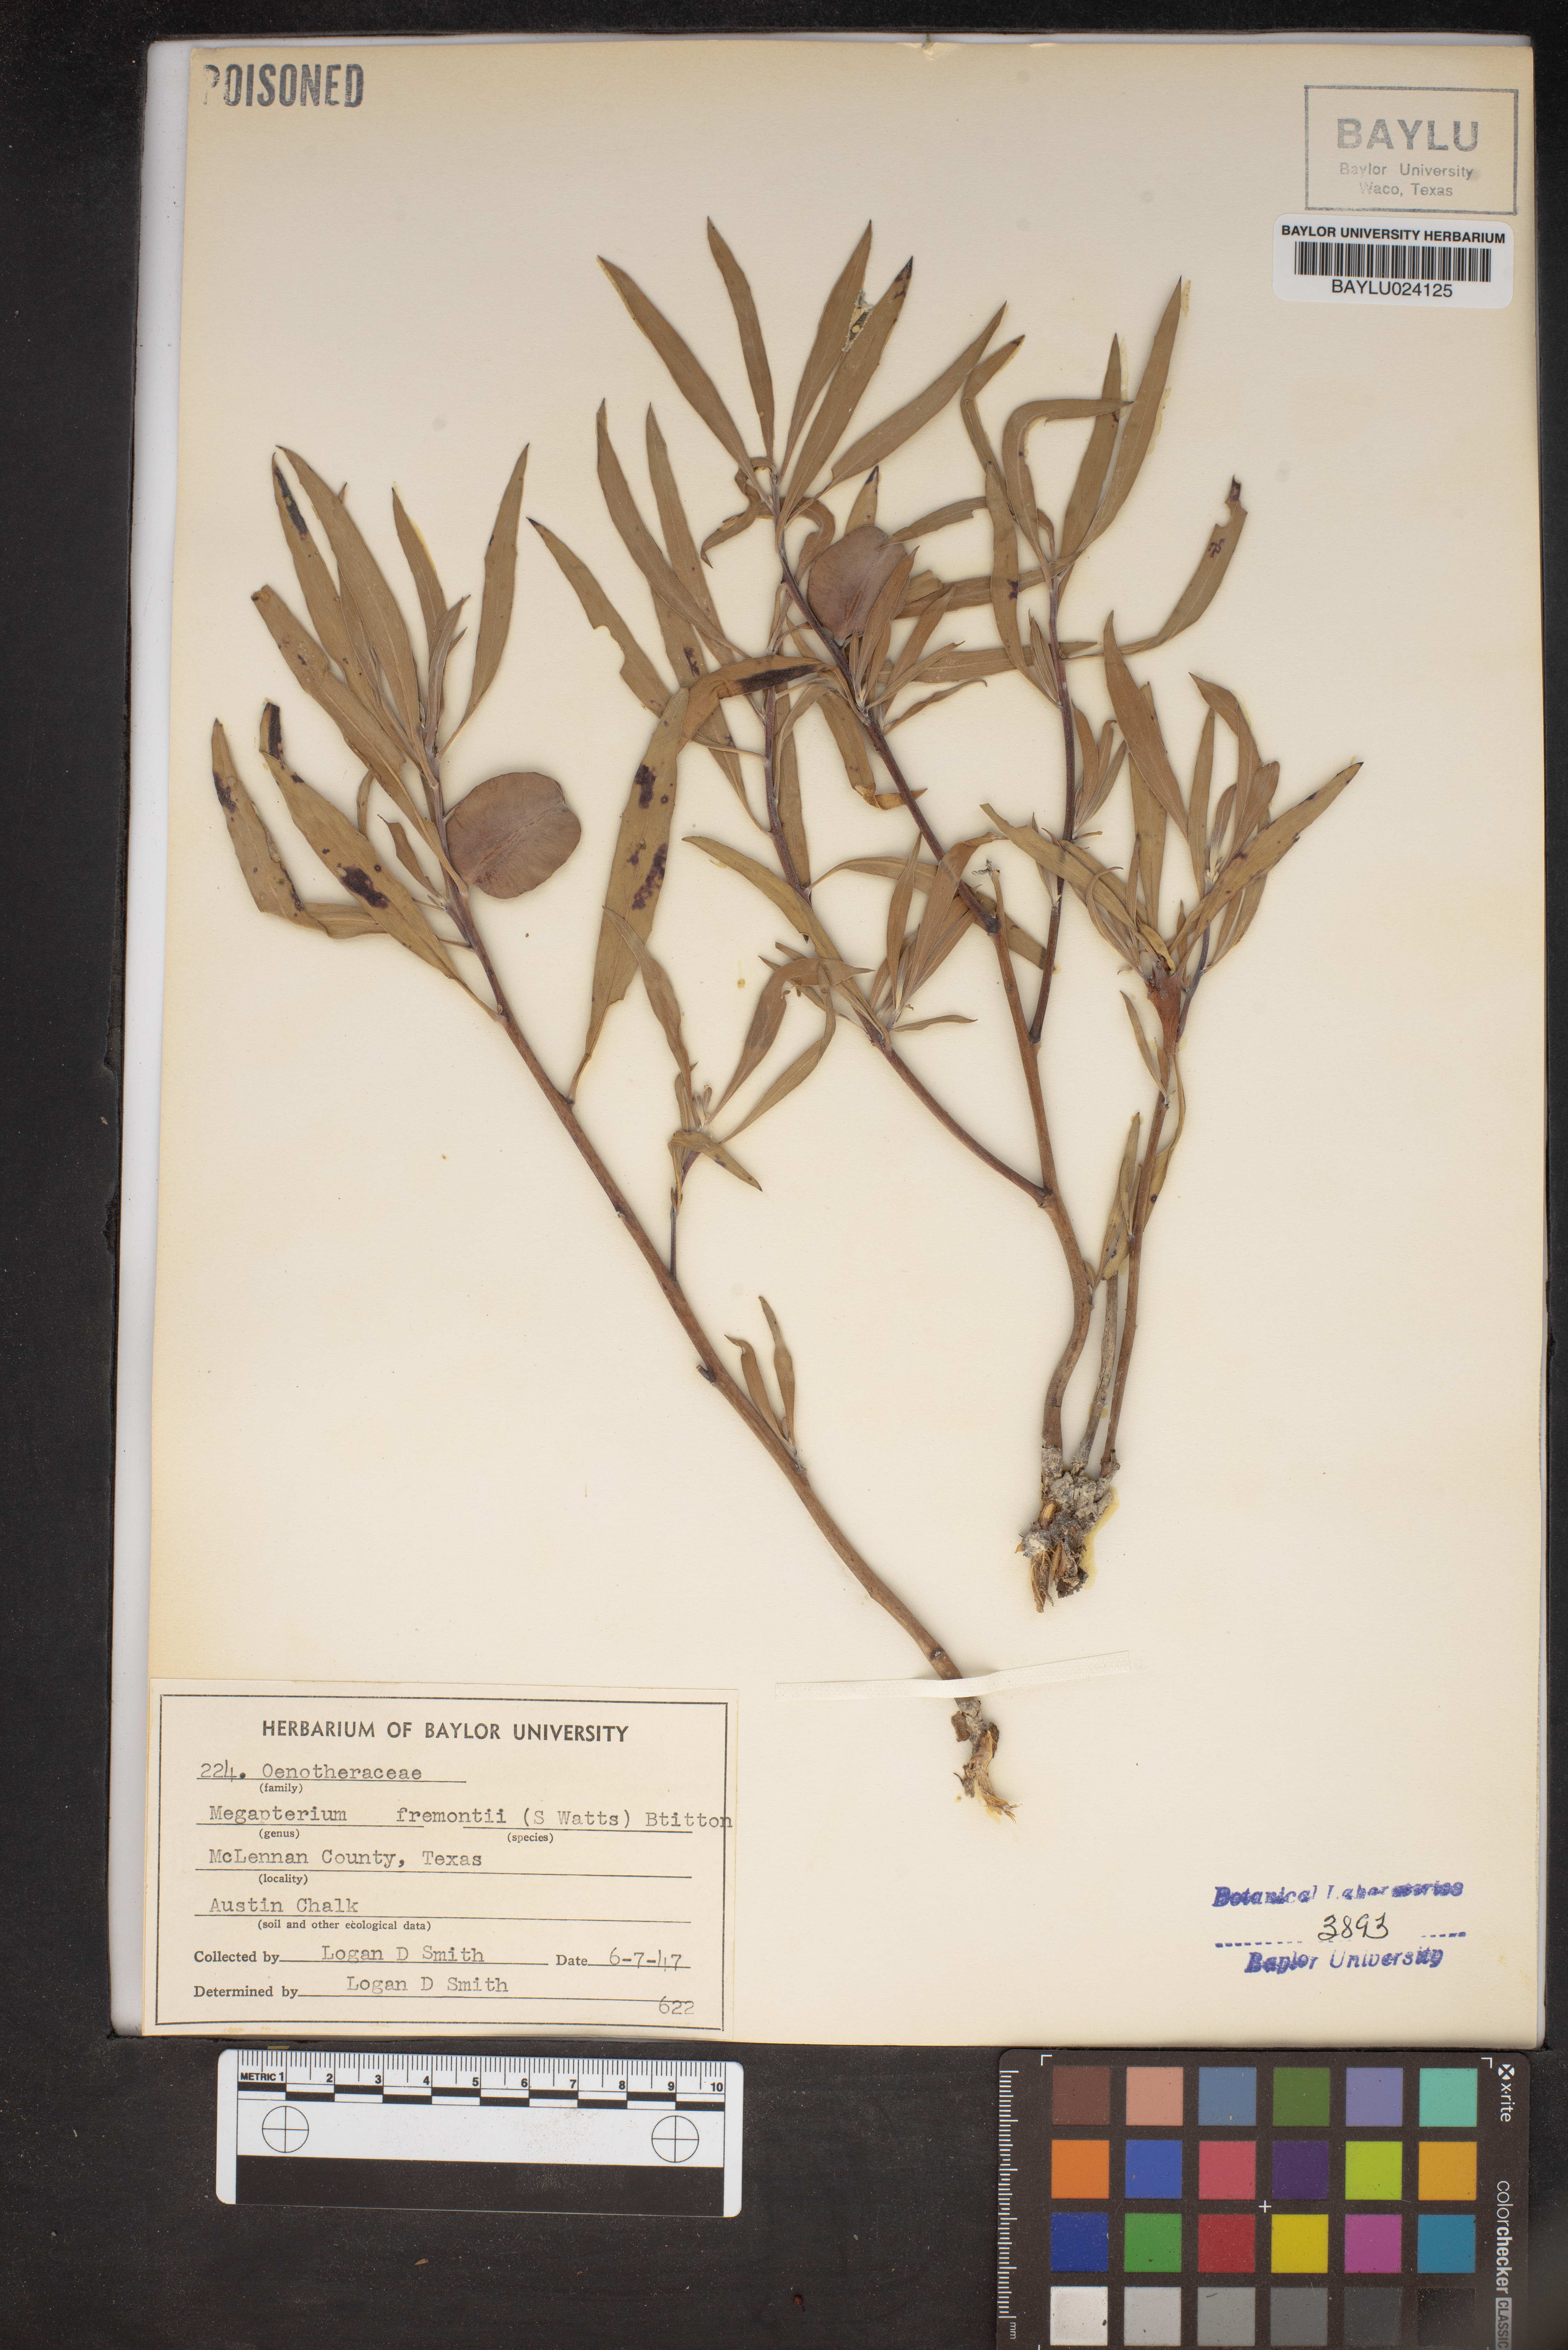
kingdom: Plantae
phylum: Tracheophyta
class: Magnoliopsida
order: Myrtales
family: Onagraceae
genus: Oenothera
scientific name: Oenothera macrocarpa
